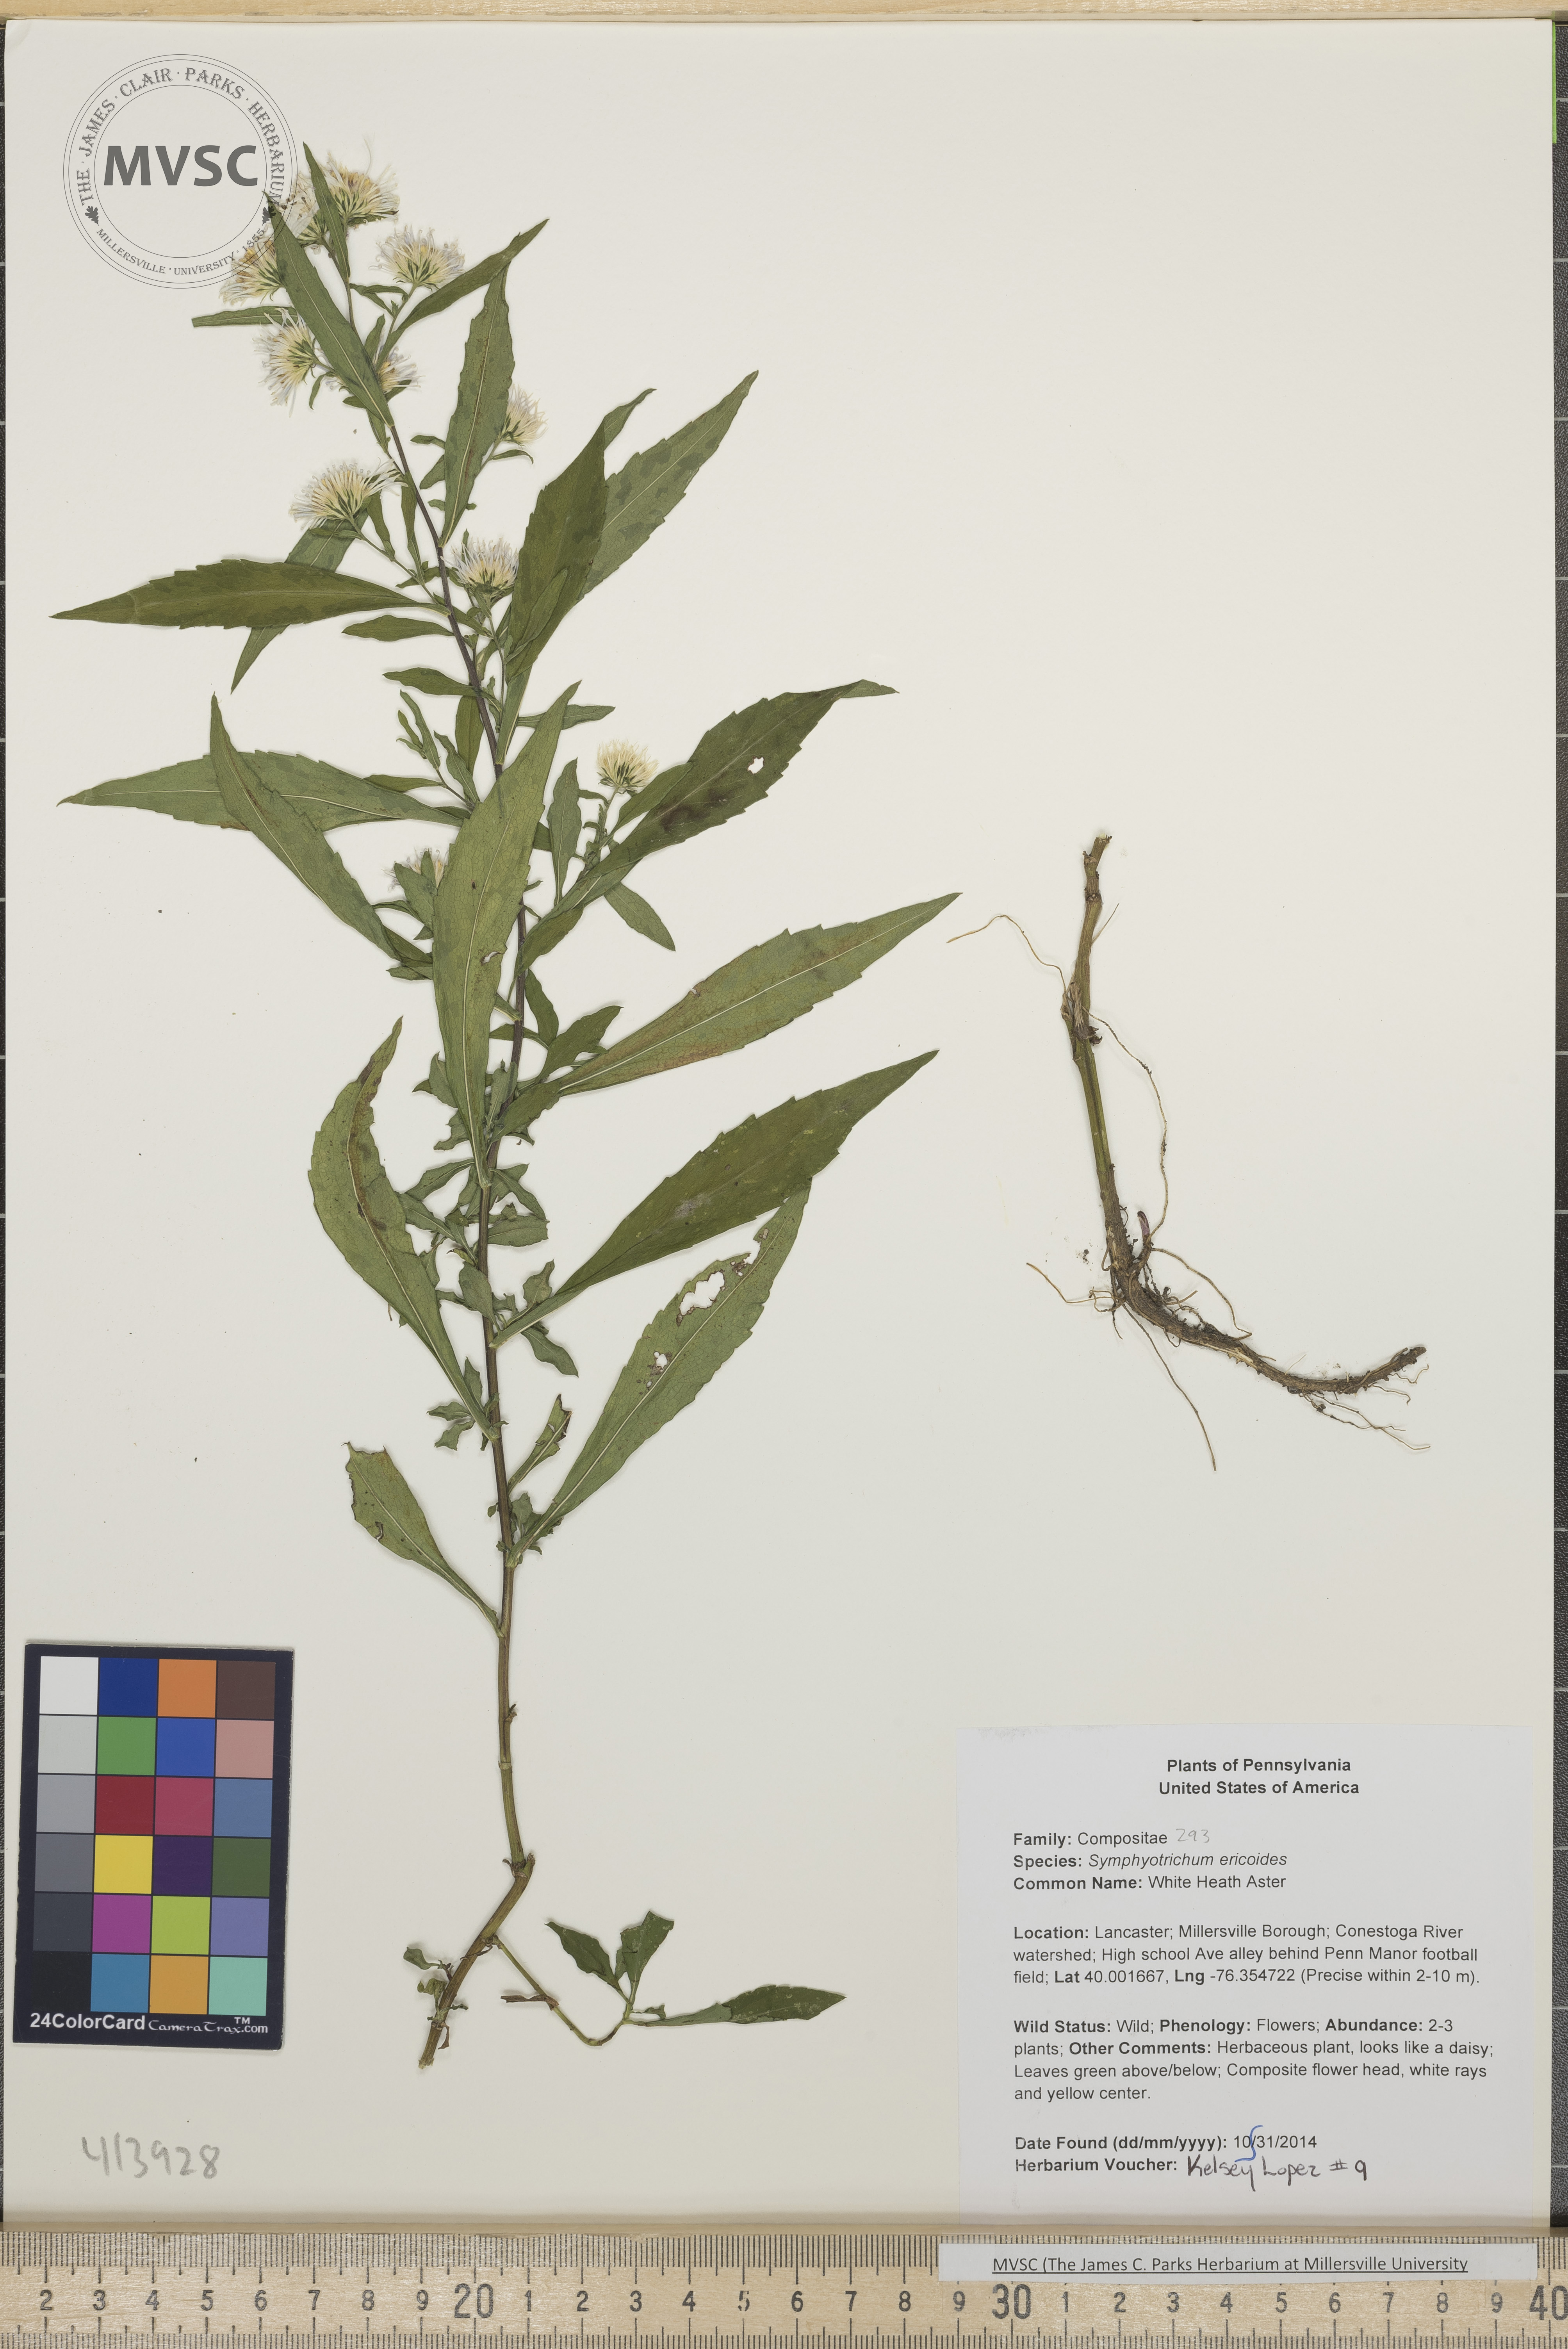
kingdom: Plantae
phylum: Tracheophyta
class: Magnoliopsida
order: Asterales
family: Asteraceae
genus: Symphyotrichum
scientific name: Symphyotrichum lanceolatum
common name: White Heath Aster
